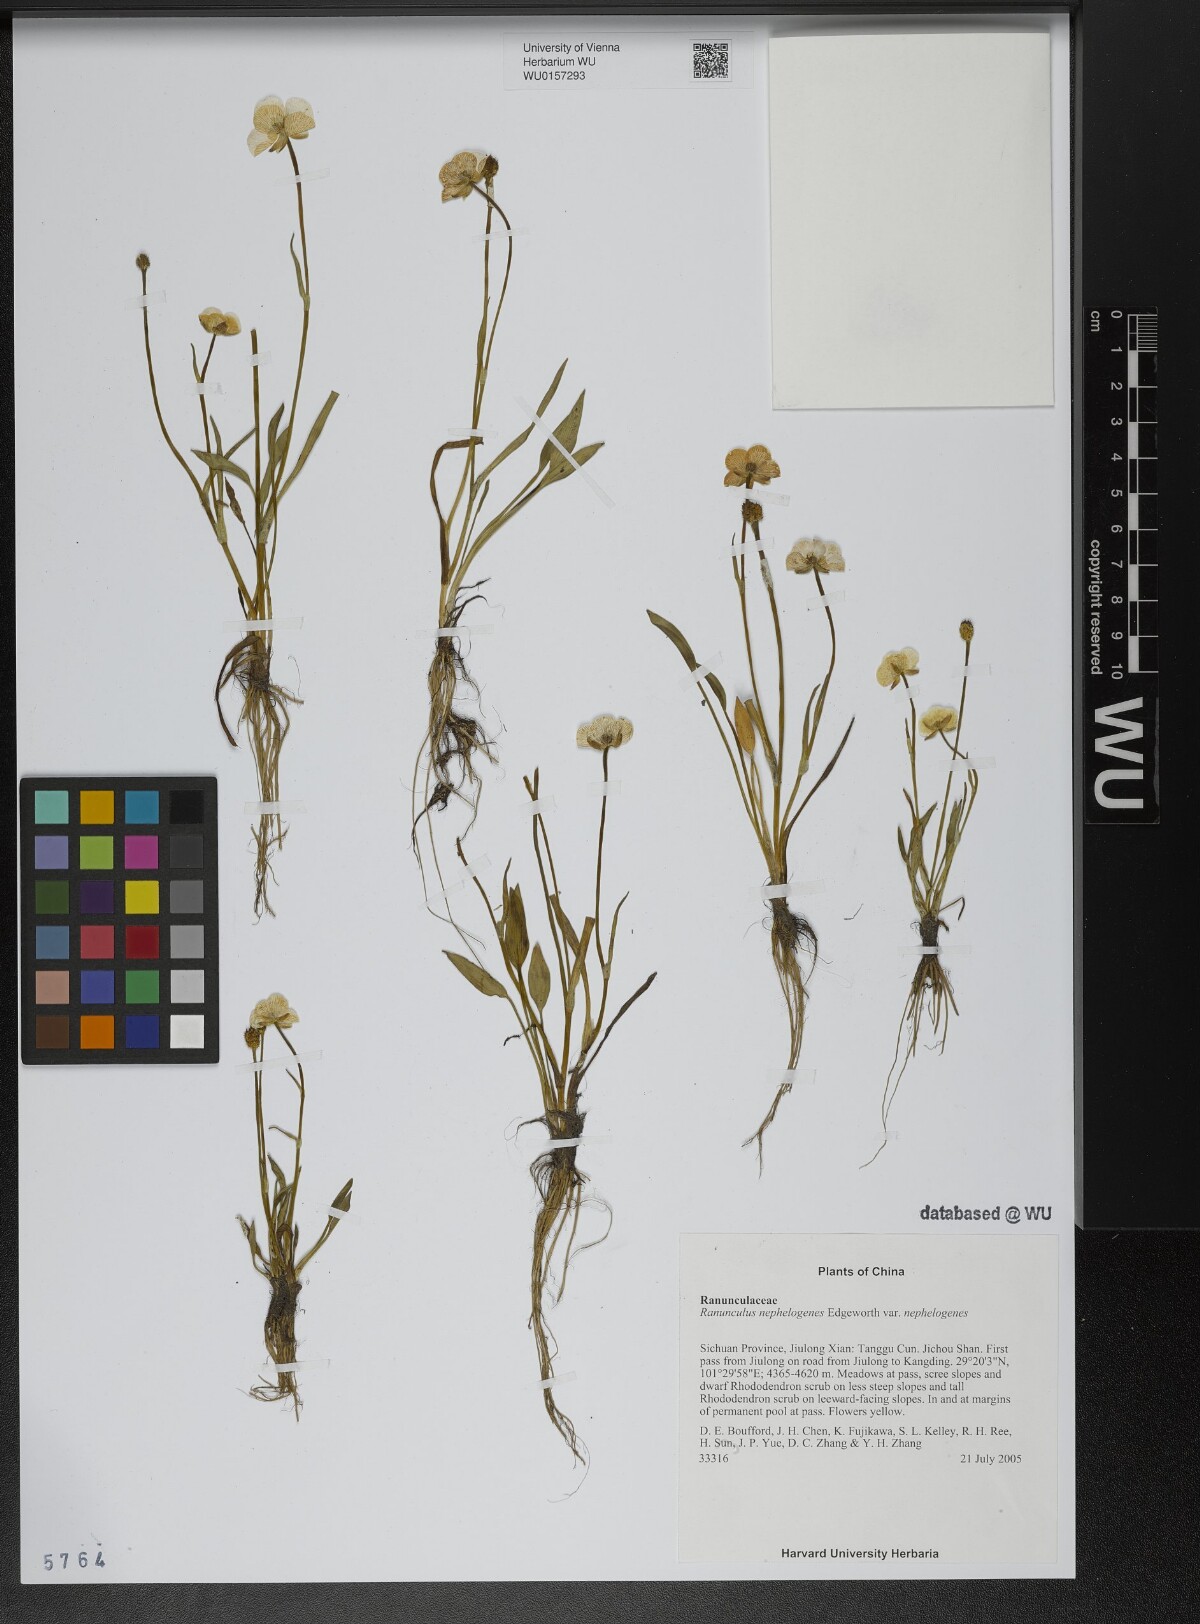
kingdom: Plantae
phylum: Tracheophyta
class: Magnoliopsida
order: Ranunculales
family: Ranunculaceae
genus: Ranunculus
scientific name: Ranunculus nephelogenes
